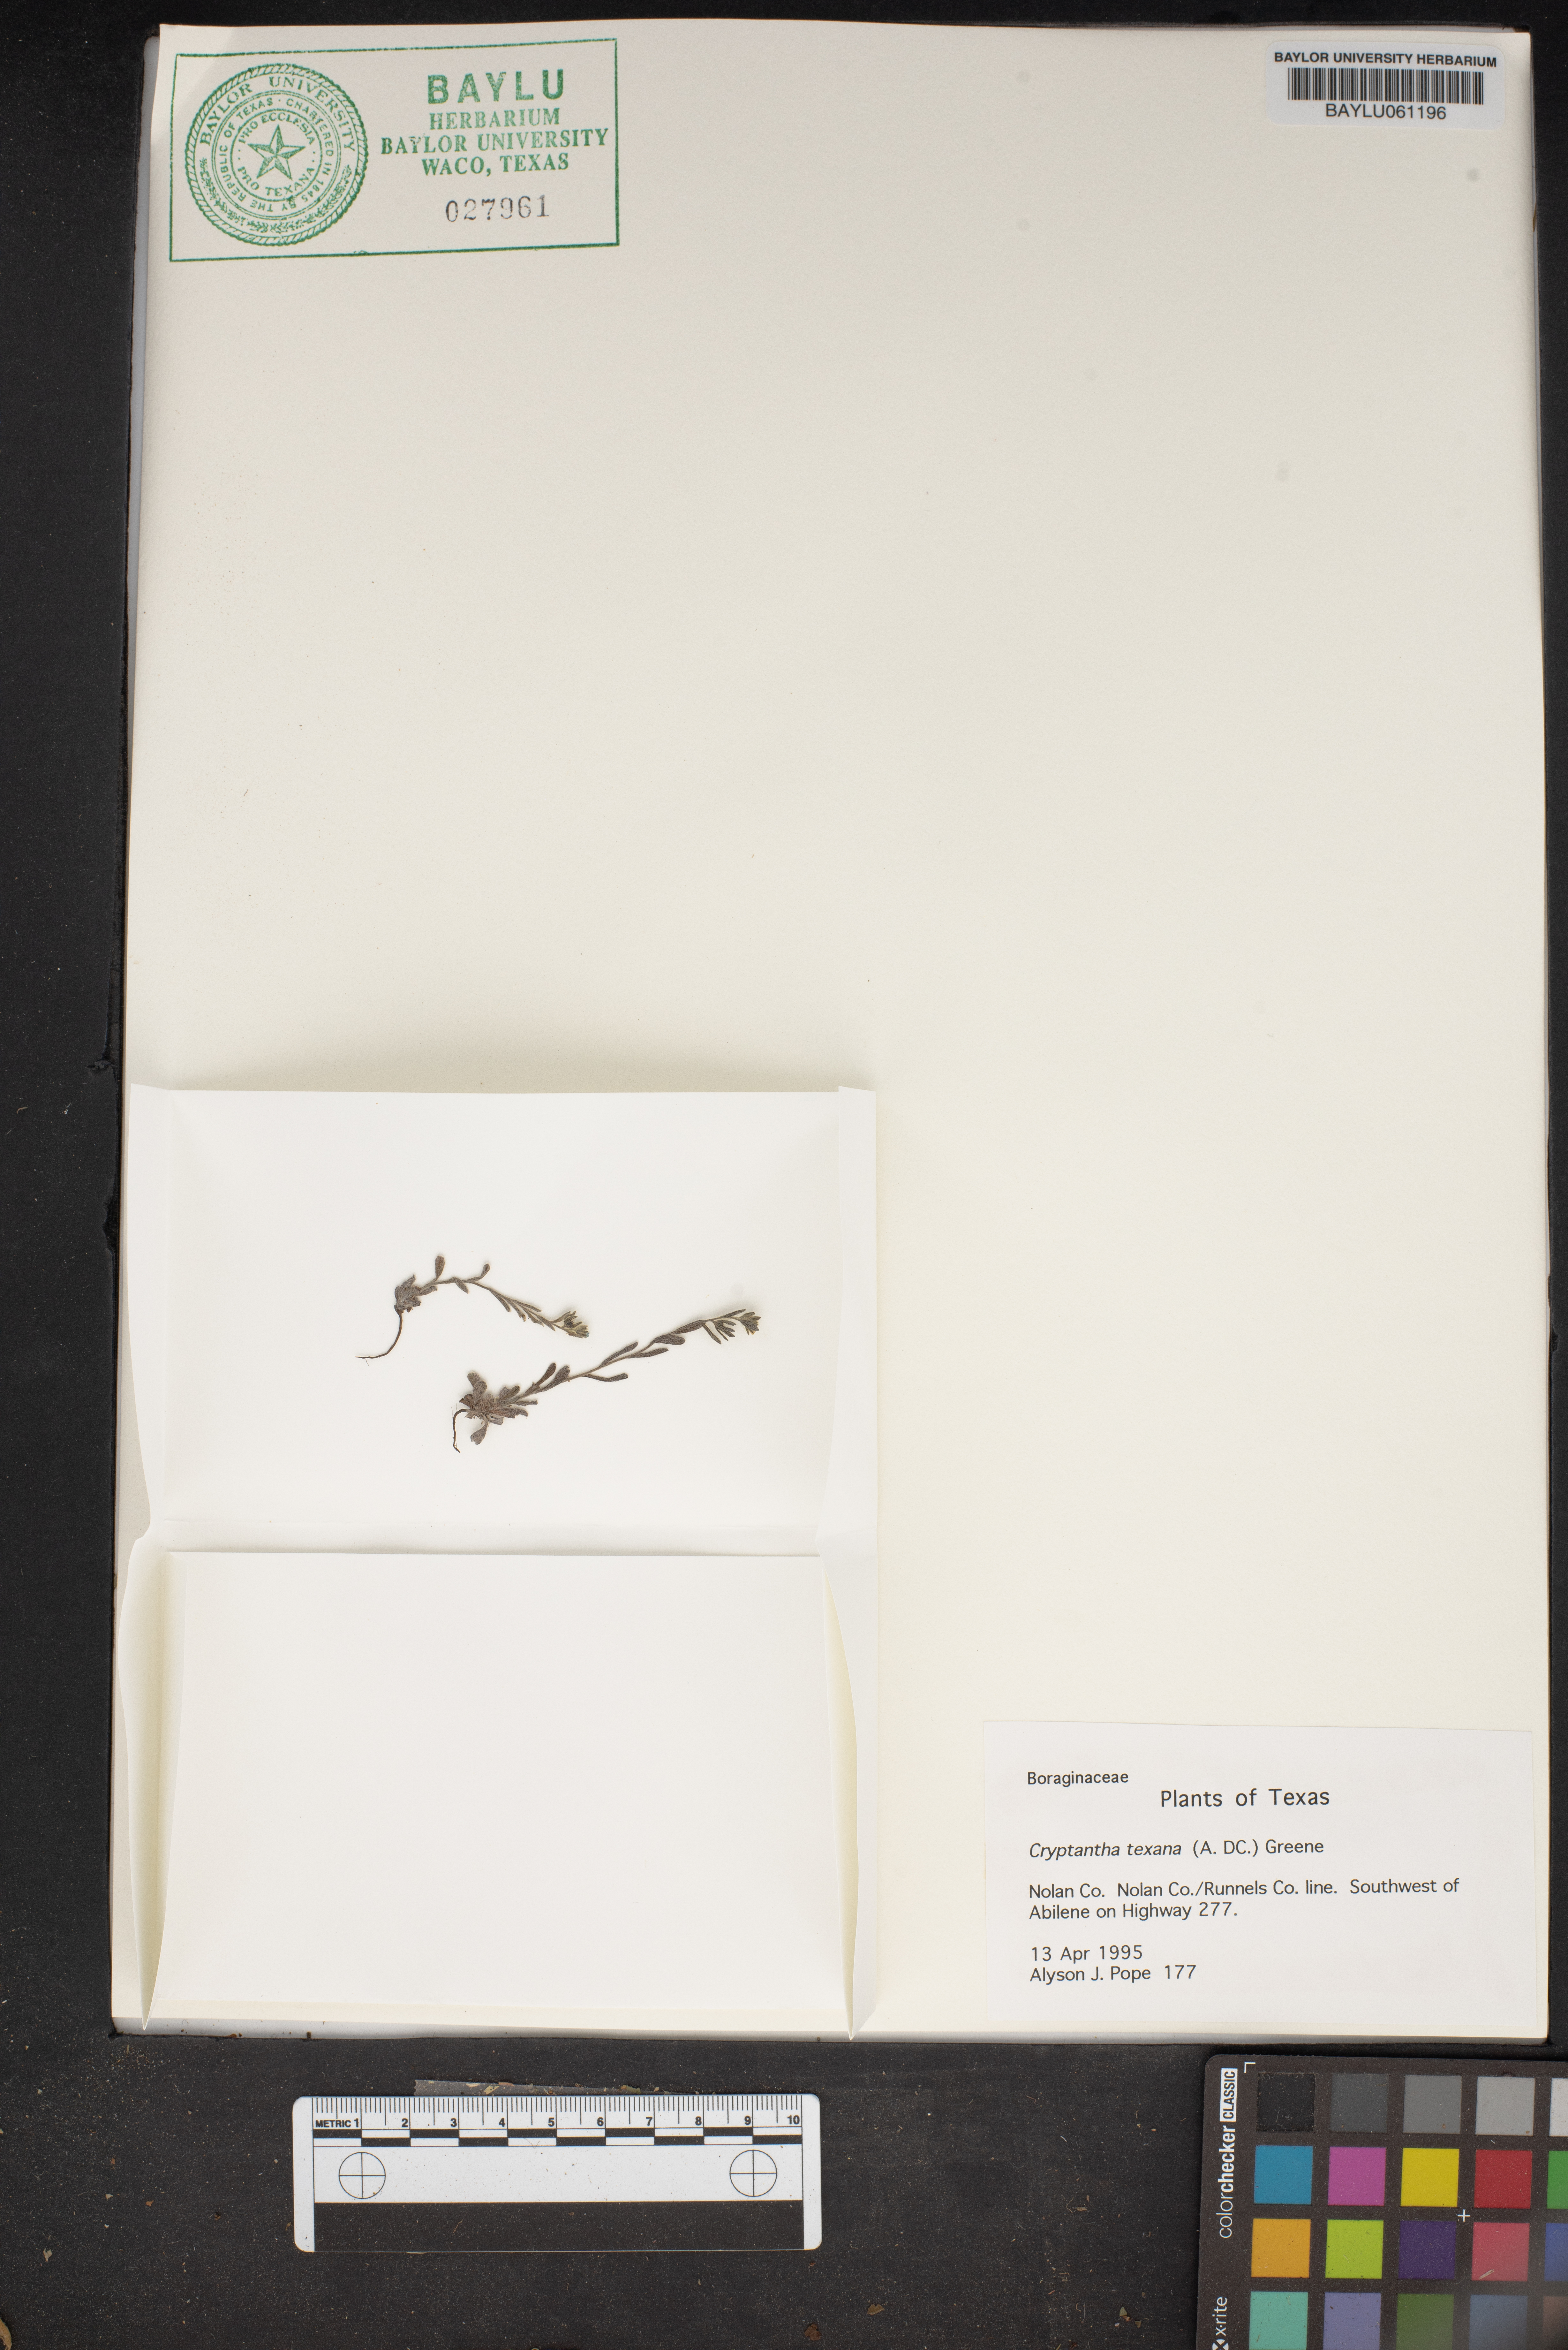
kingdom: Plantae
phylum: Tracheophyta
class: Magnoliopsida
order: Boraginales
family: Boraginaceae
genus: Cryptantha
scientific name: Cryptantha texana
